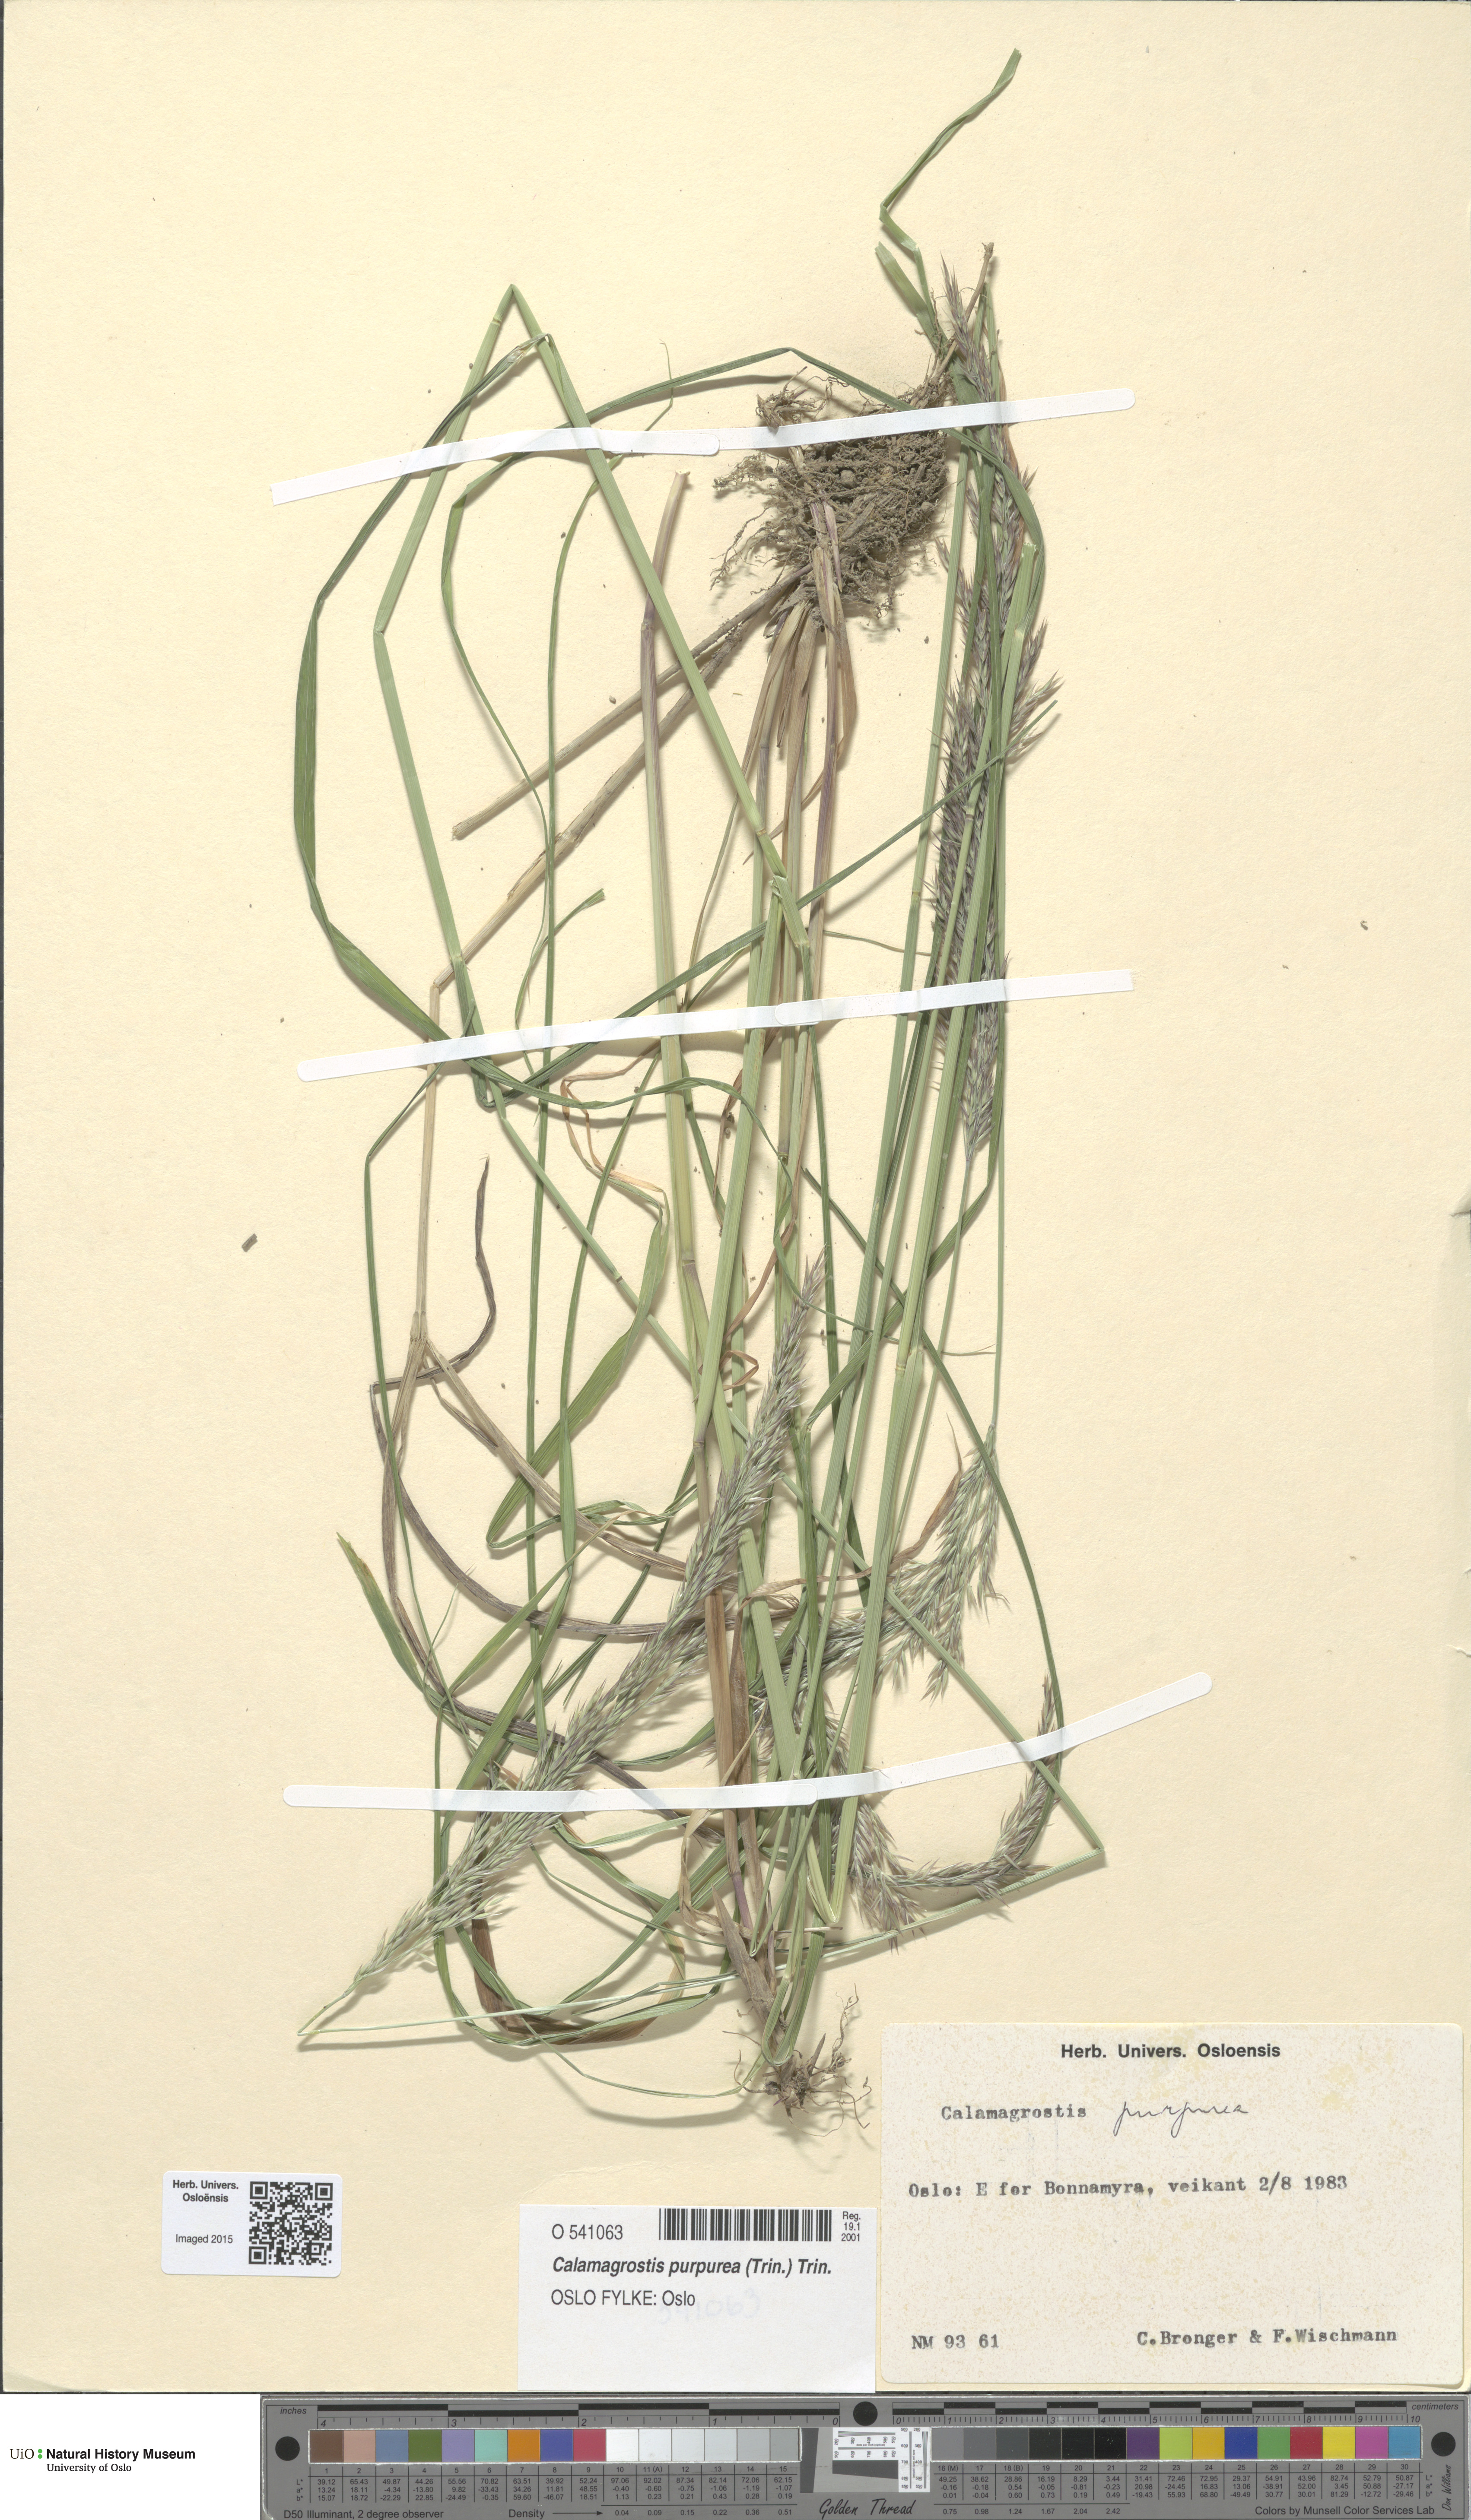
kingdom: Plantae
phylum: Tracheophyta
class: Liliopsida
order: Poales
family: Poaceae
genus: Calamagrostis
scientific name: Calamagrostis purpurea
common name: Scandinavian small-reed
